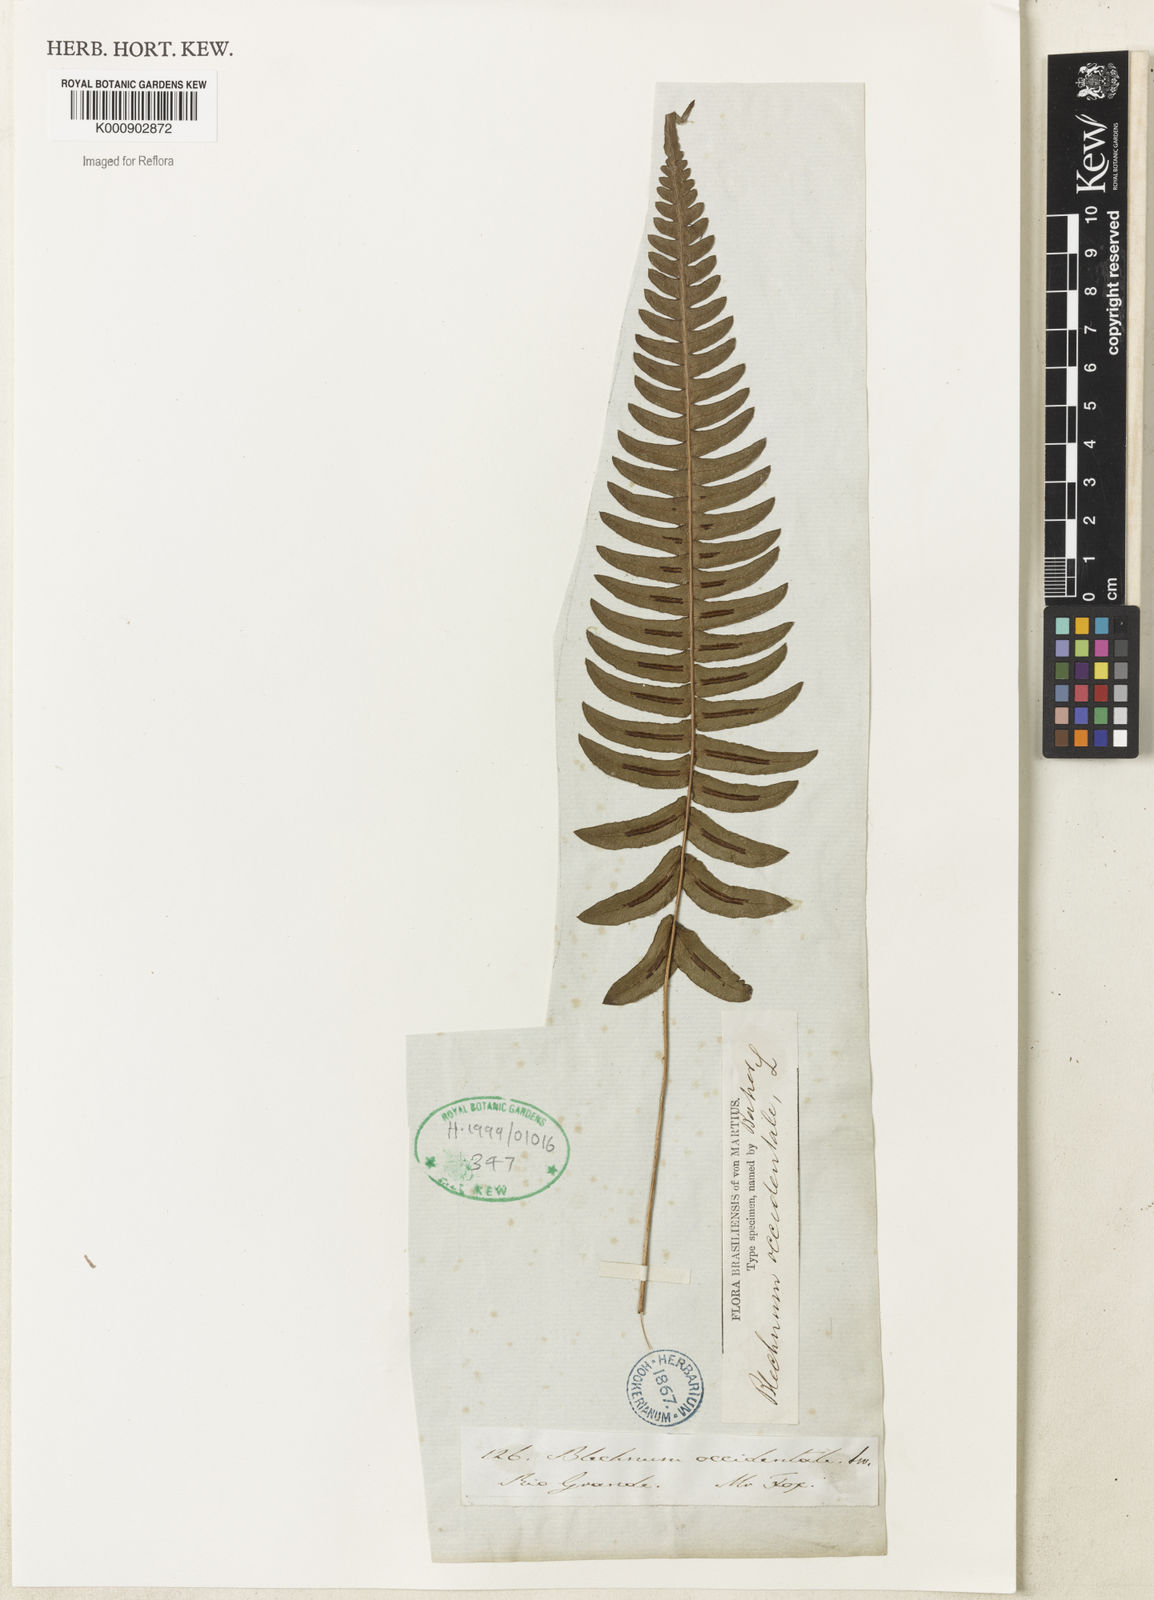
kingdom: Plantae
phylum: Tracheophyta
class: Polypodiopsida
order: Polypodiales
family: Blechnaceae
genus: Blechnum
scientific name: Blechnum occidentale
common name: Hammock fern
